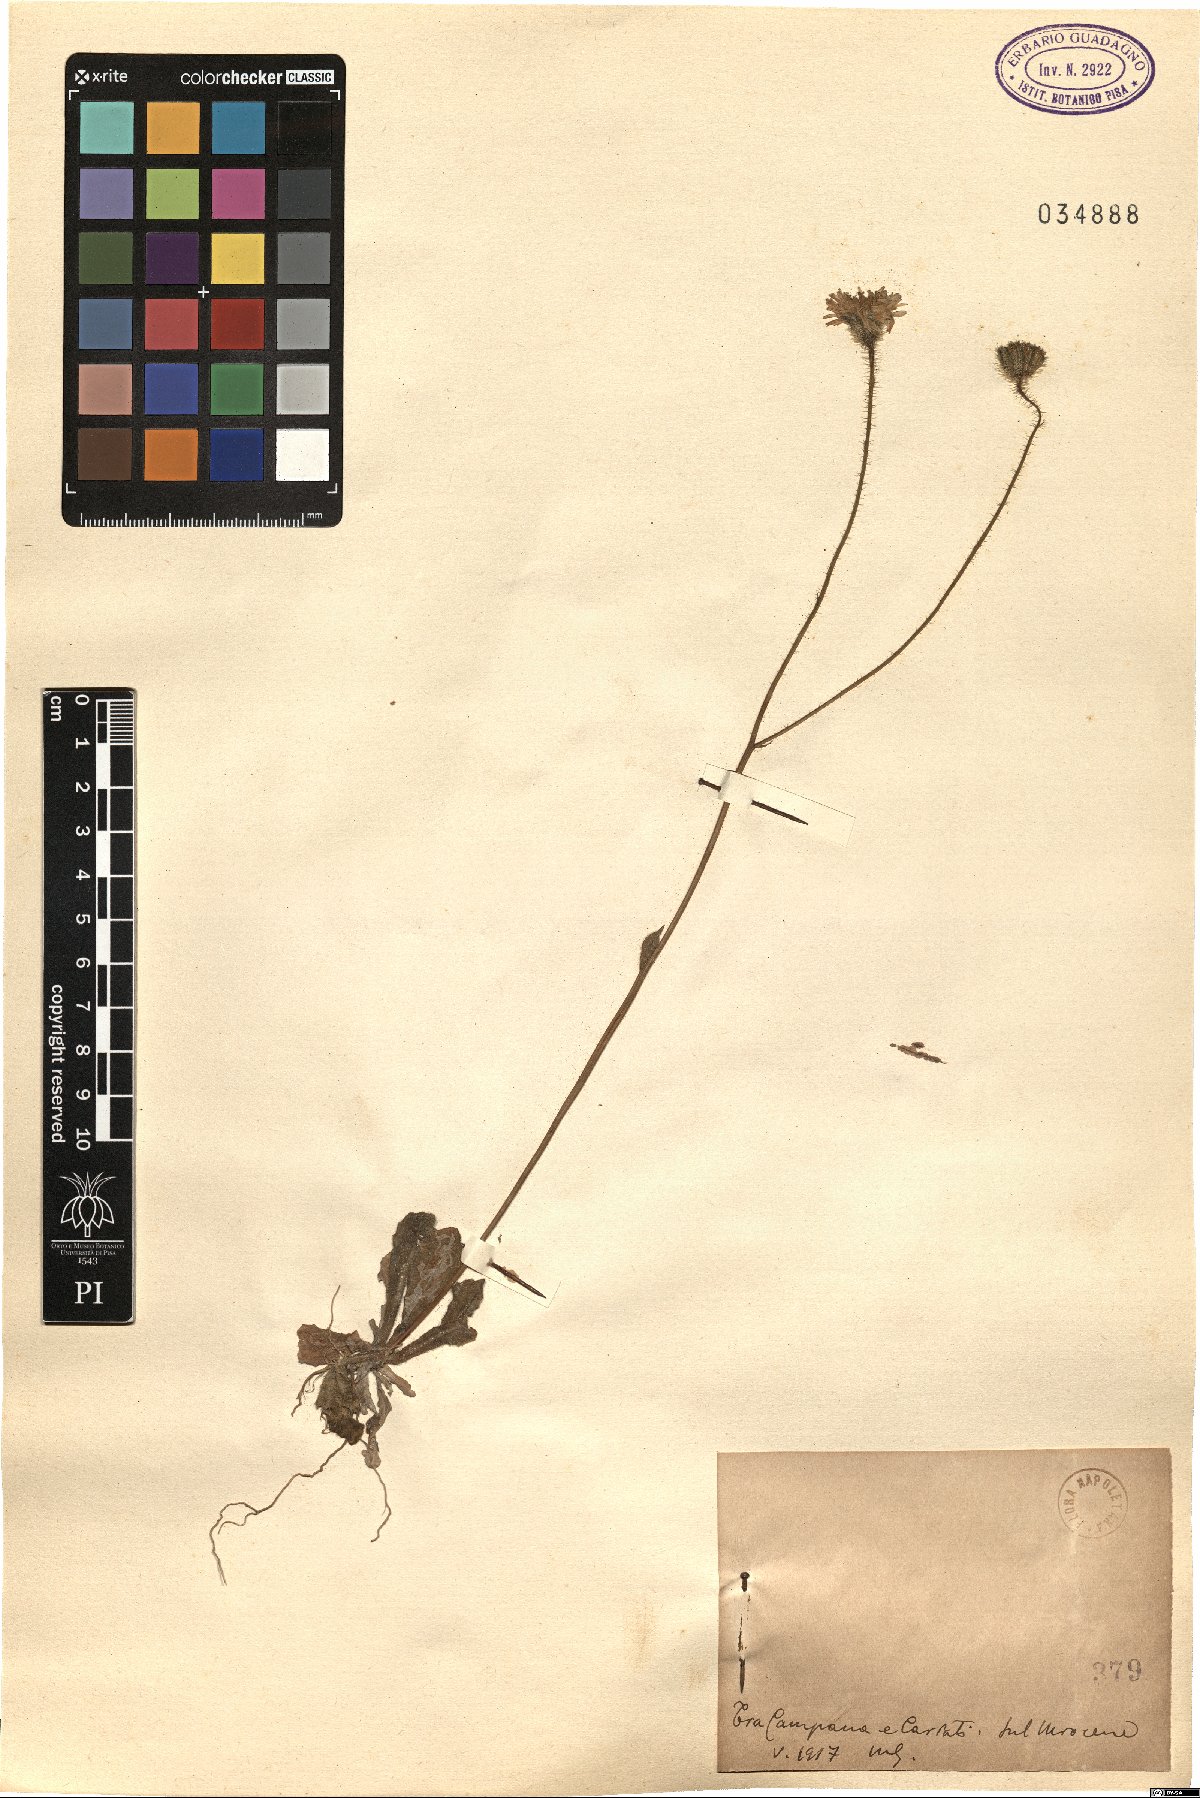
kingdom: Plantae
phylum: Tracheophyta
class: Magnoliopsida
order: Asterales
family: Asteraceae
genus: Hypochaeris
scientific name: Hypochaeris
